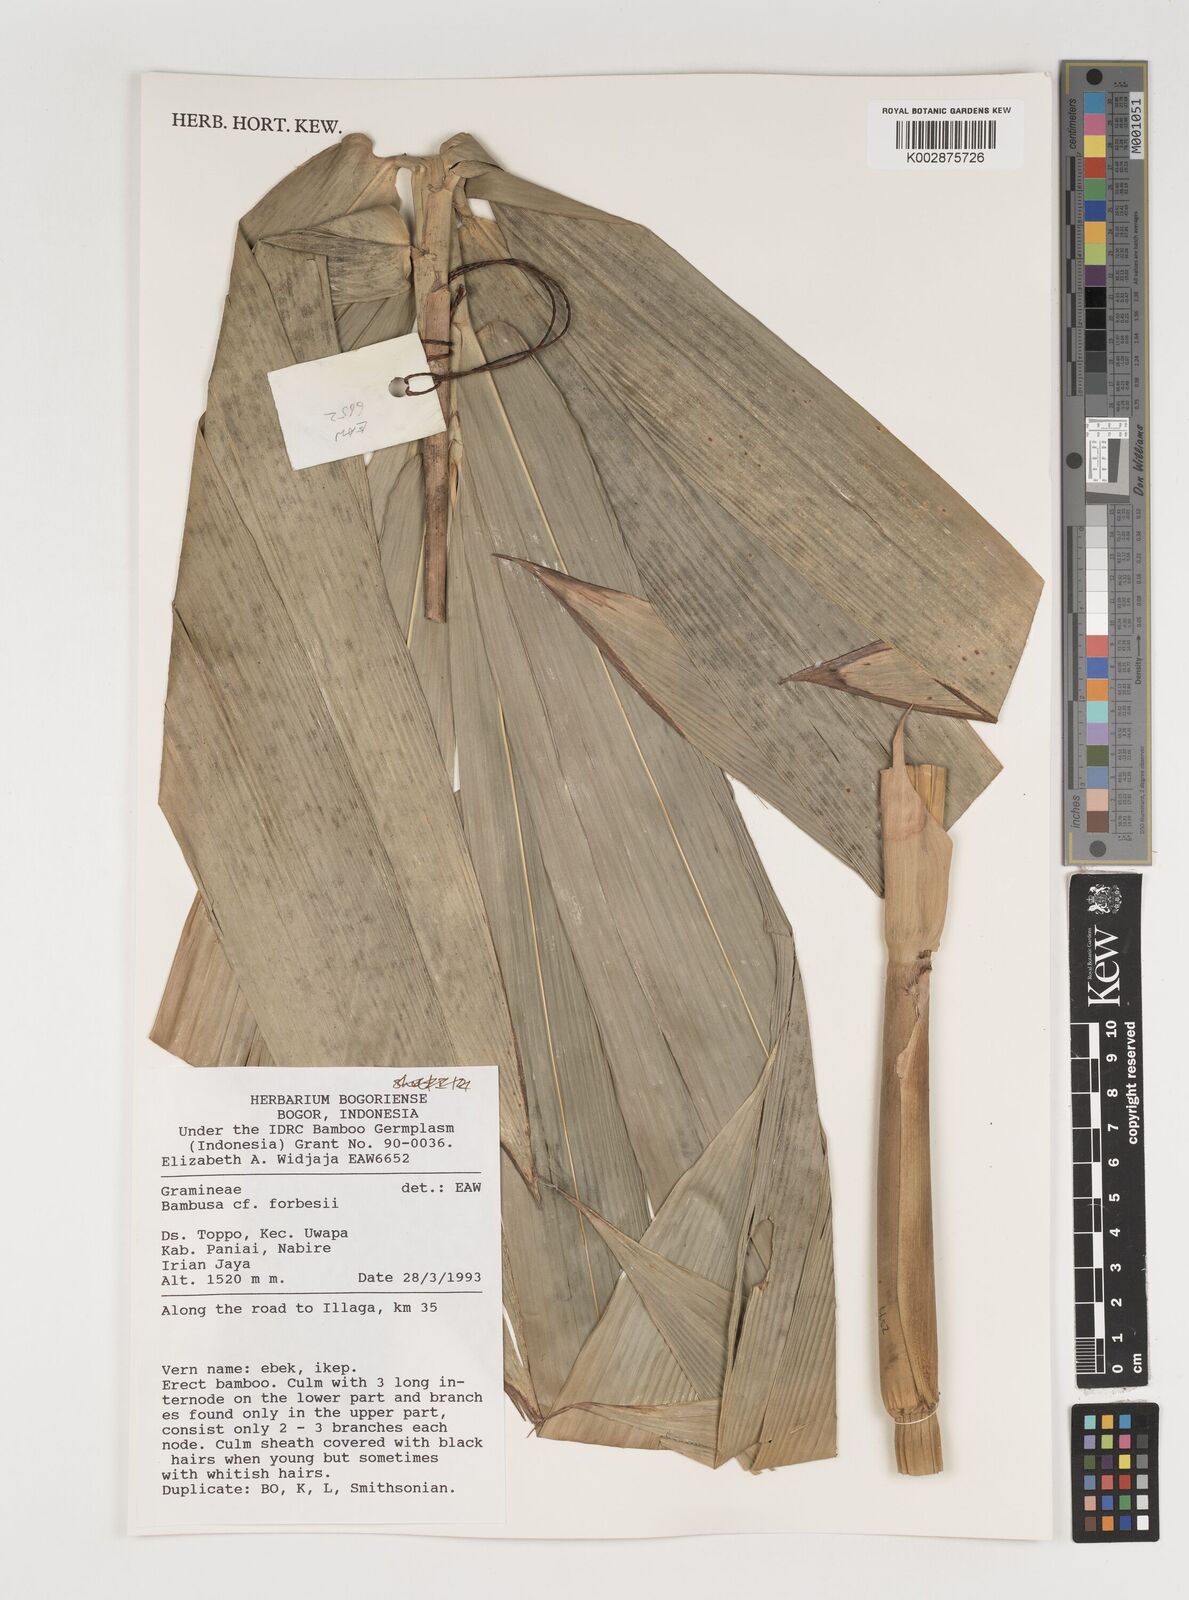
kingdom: Plantae
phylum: Tracheophyta
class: Liliopsida
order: Poales
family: Poaceae
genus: Neololeba
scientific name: Neololeba atra
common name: Cape bamboo
